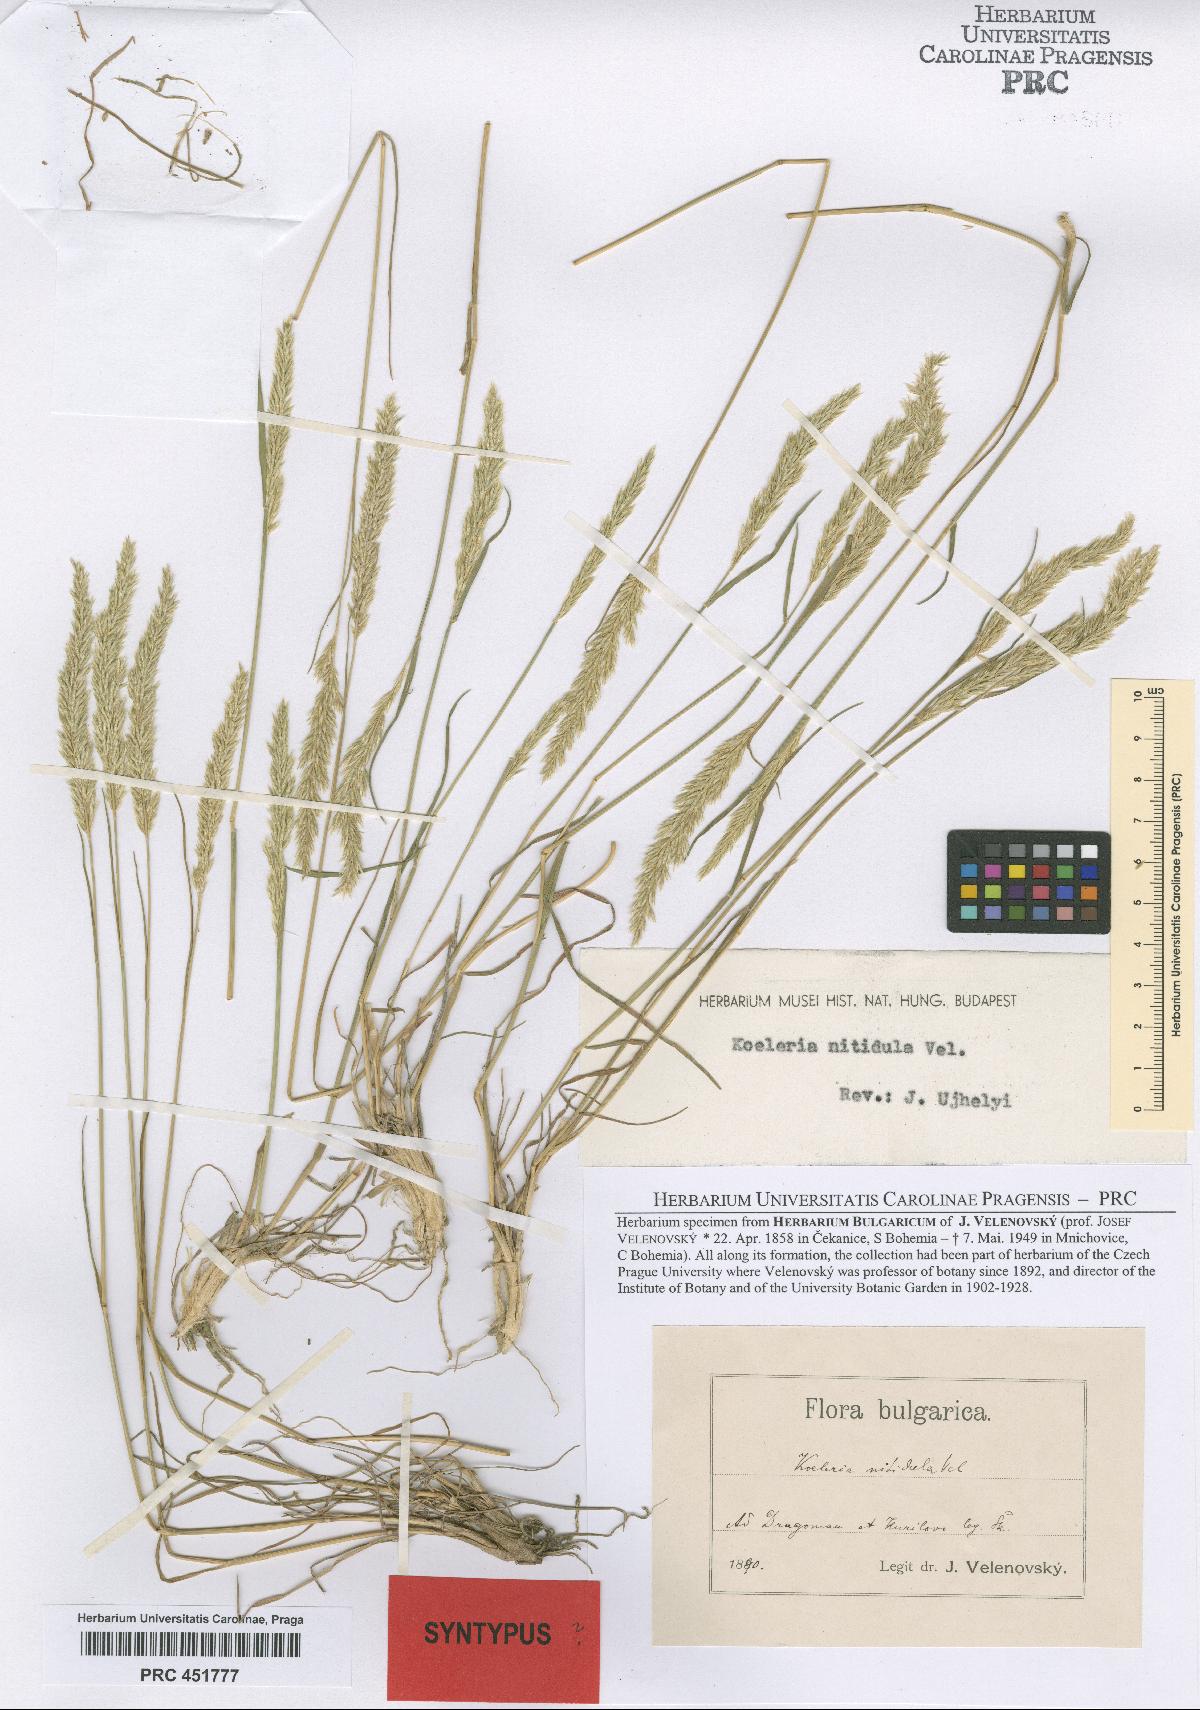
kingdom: Plantae
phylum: Tracheophyta
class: Liliopsida
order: Poales
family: Poaceae
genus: Koeleria
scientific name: Koeleria nitidula
